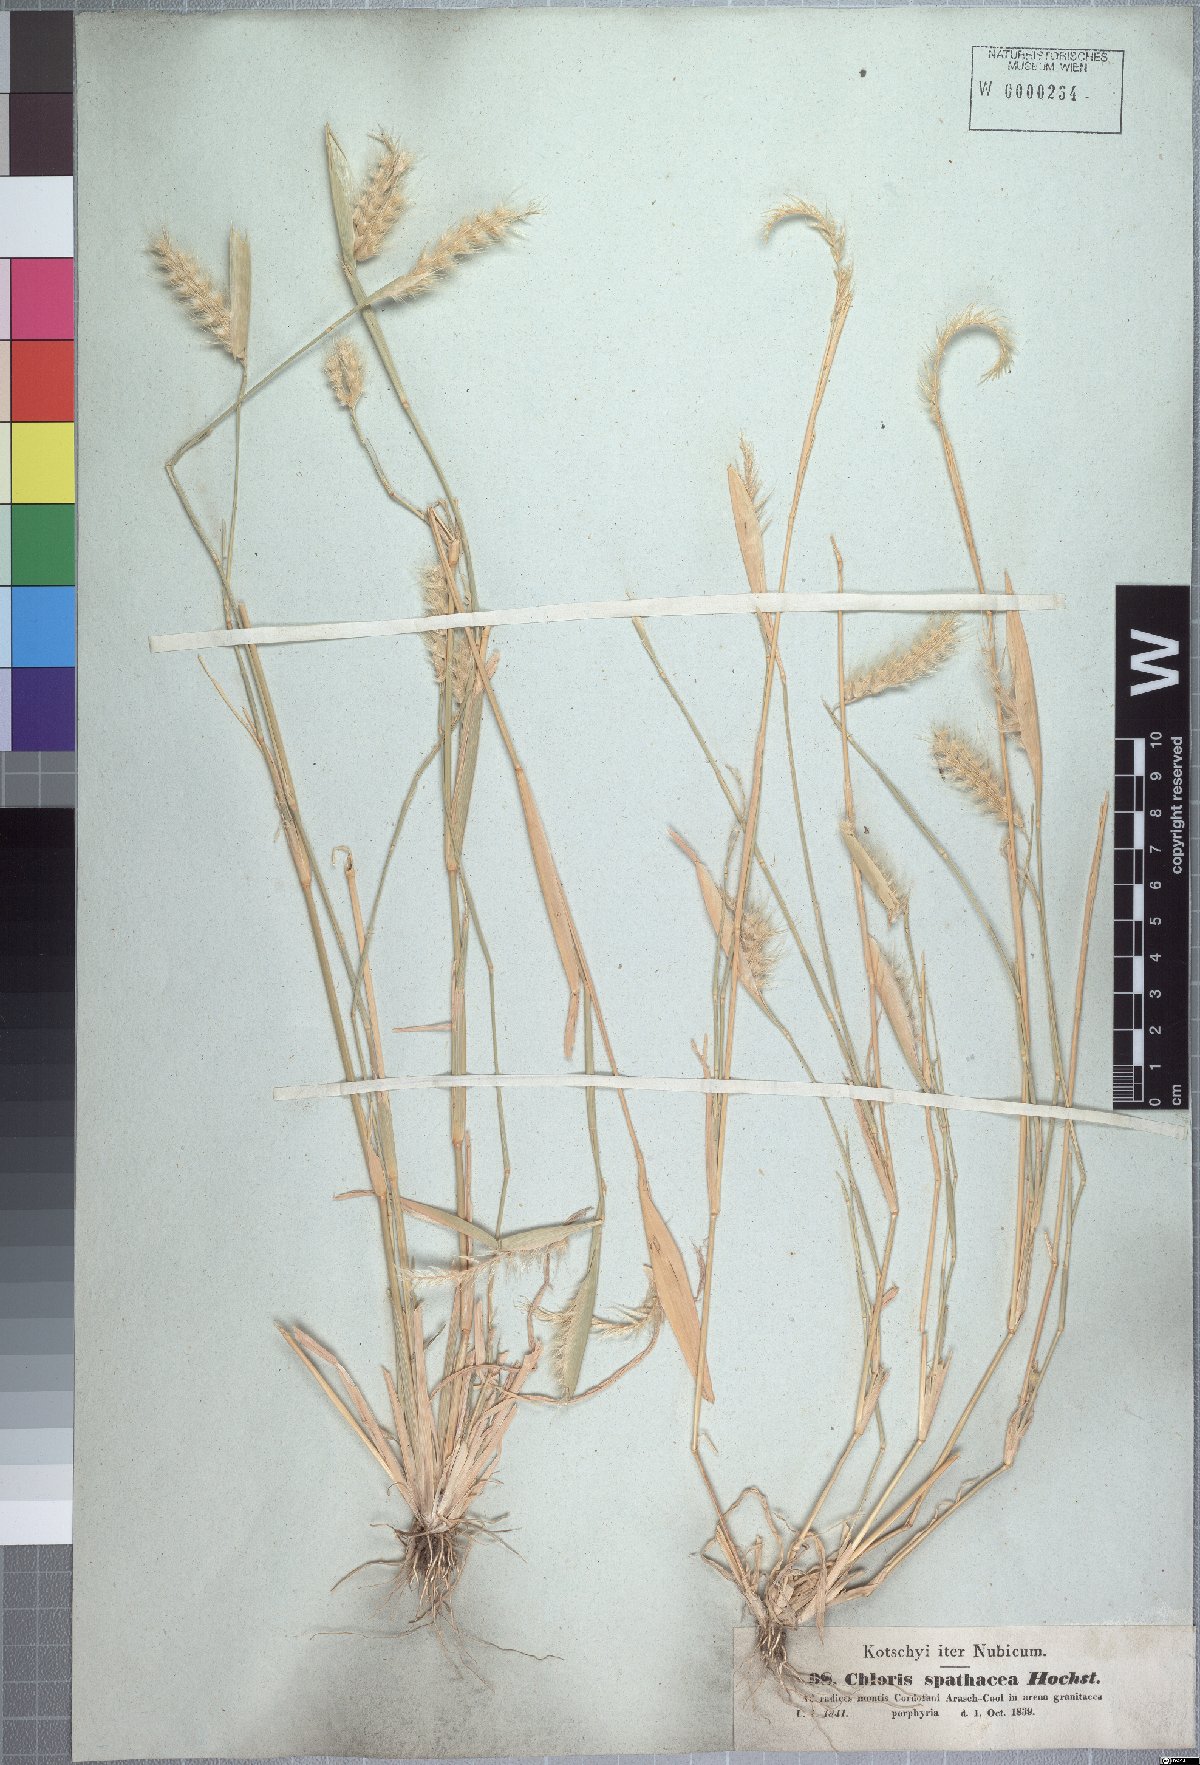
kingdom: Plantae
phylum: Tracheophyta
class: Liliopsida
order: Poales
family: Poaceae
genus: Tetrapogon
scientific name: Tetrapogon cenchriformis
